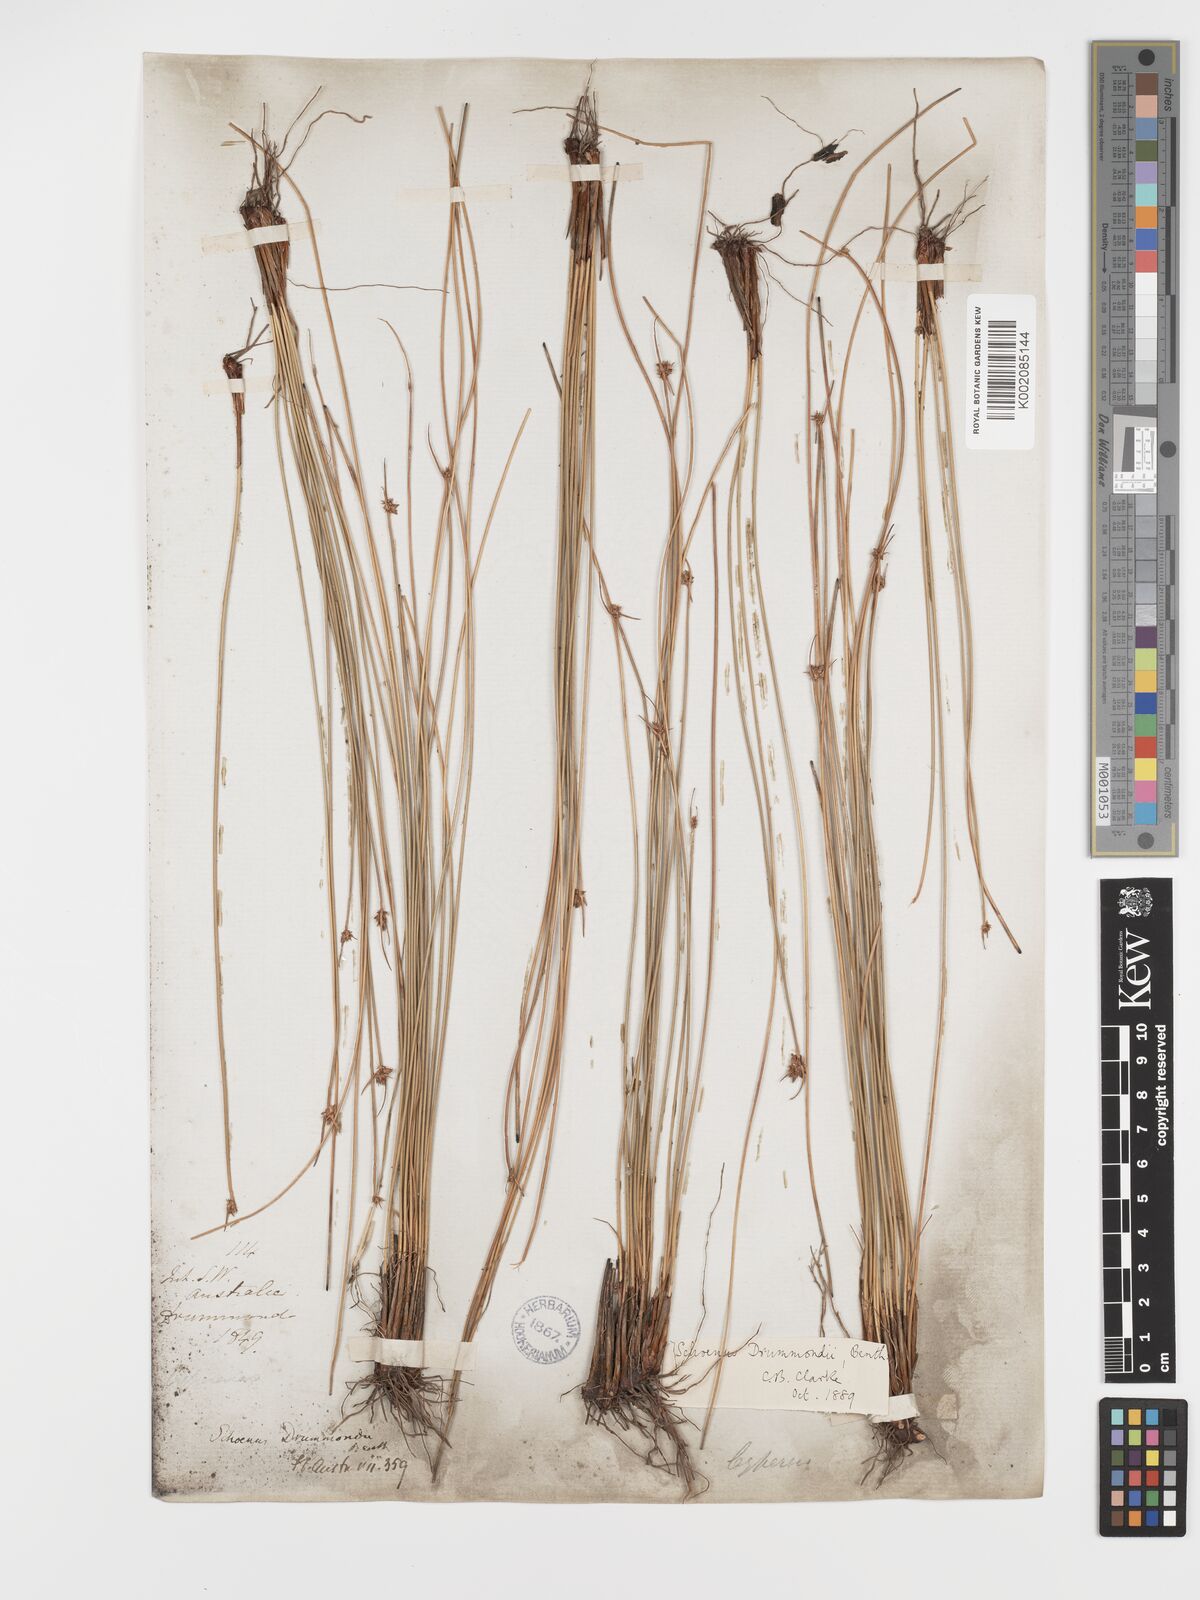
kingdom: Plantae
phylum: Tracheophyta
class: Liliopsida
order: Poales
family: Cyperaceae
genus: Schoenus
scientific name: Schoenus submicrostachyus
